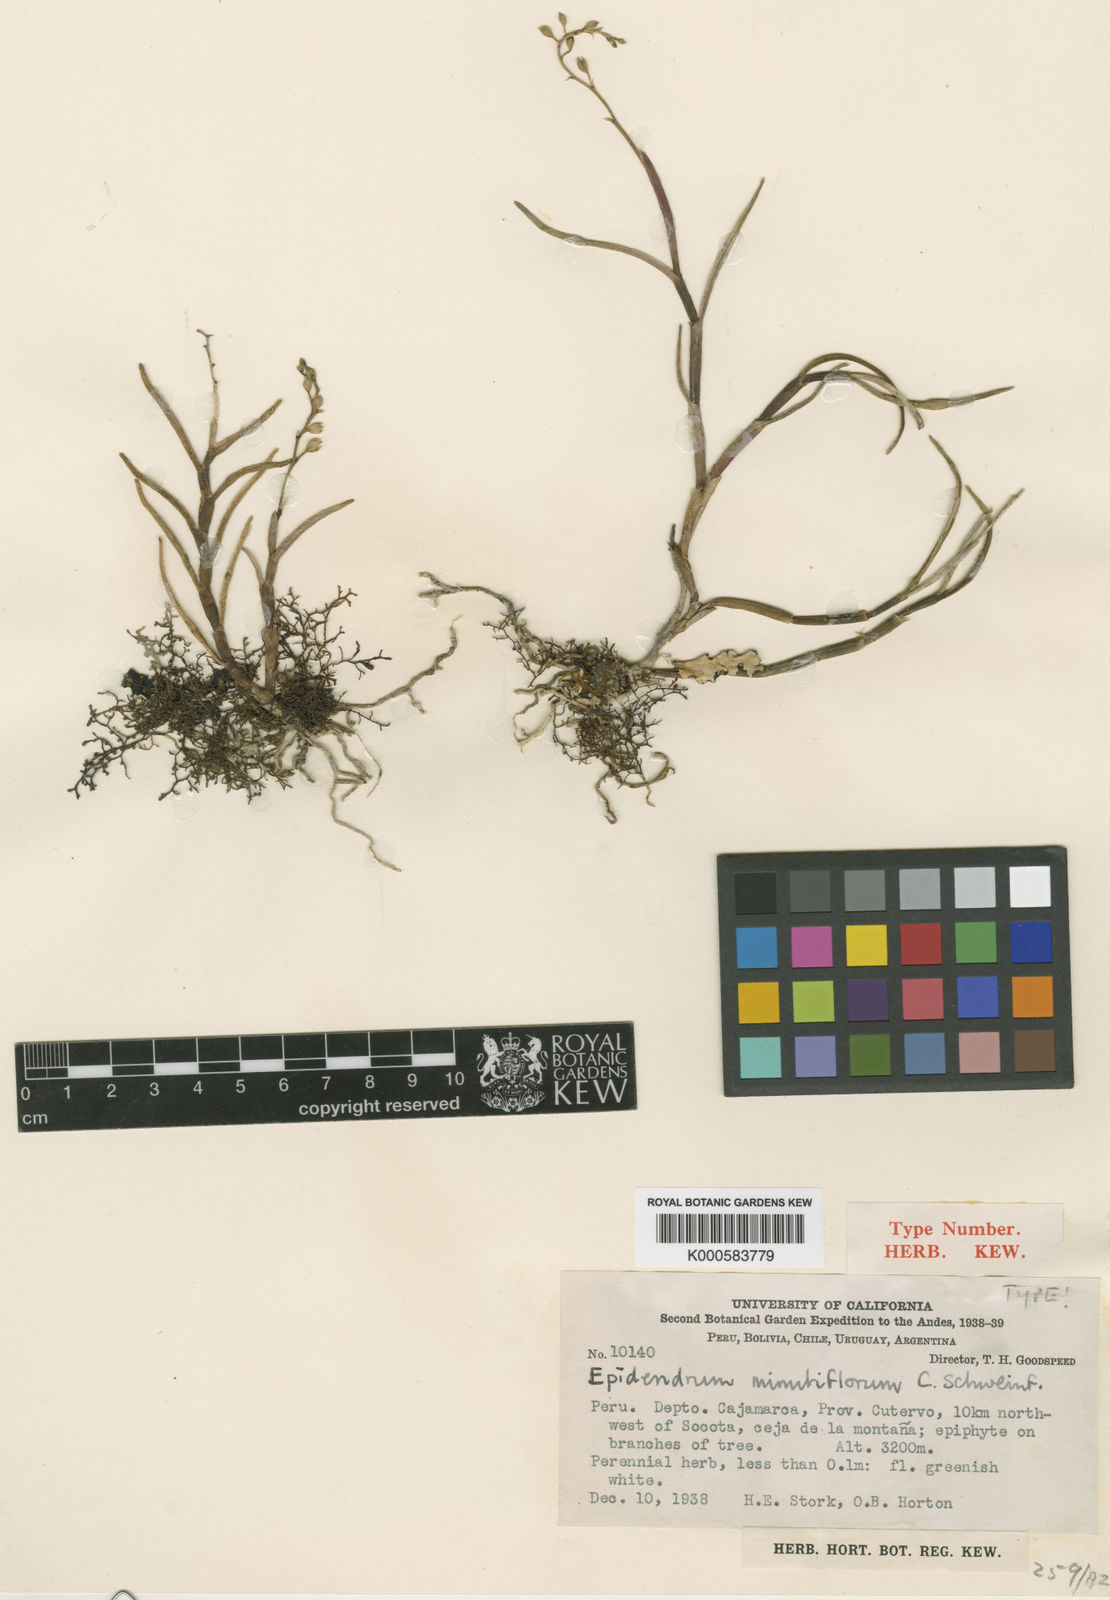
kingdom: Plantae
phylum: Tracheophyta
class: Liliopsida
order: Asparagales
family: Orchidaceae
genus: Epidendrum
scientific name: Epidendrum minutiflorum
